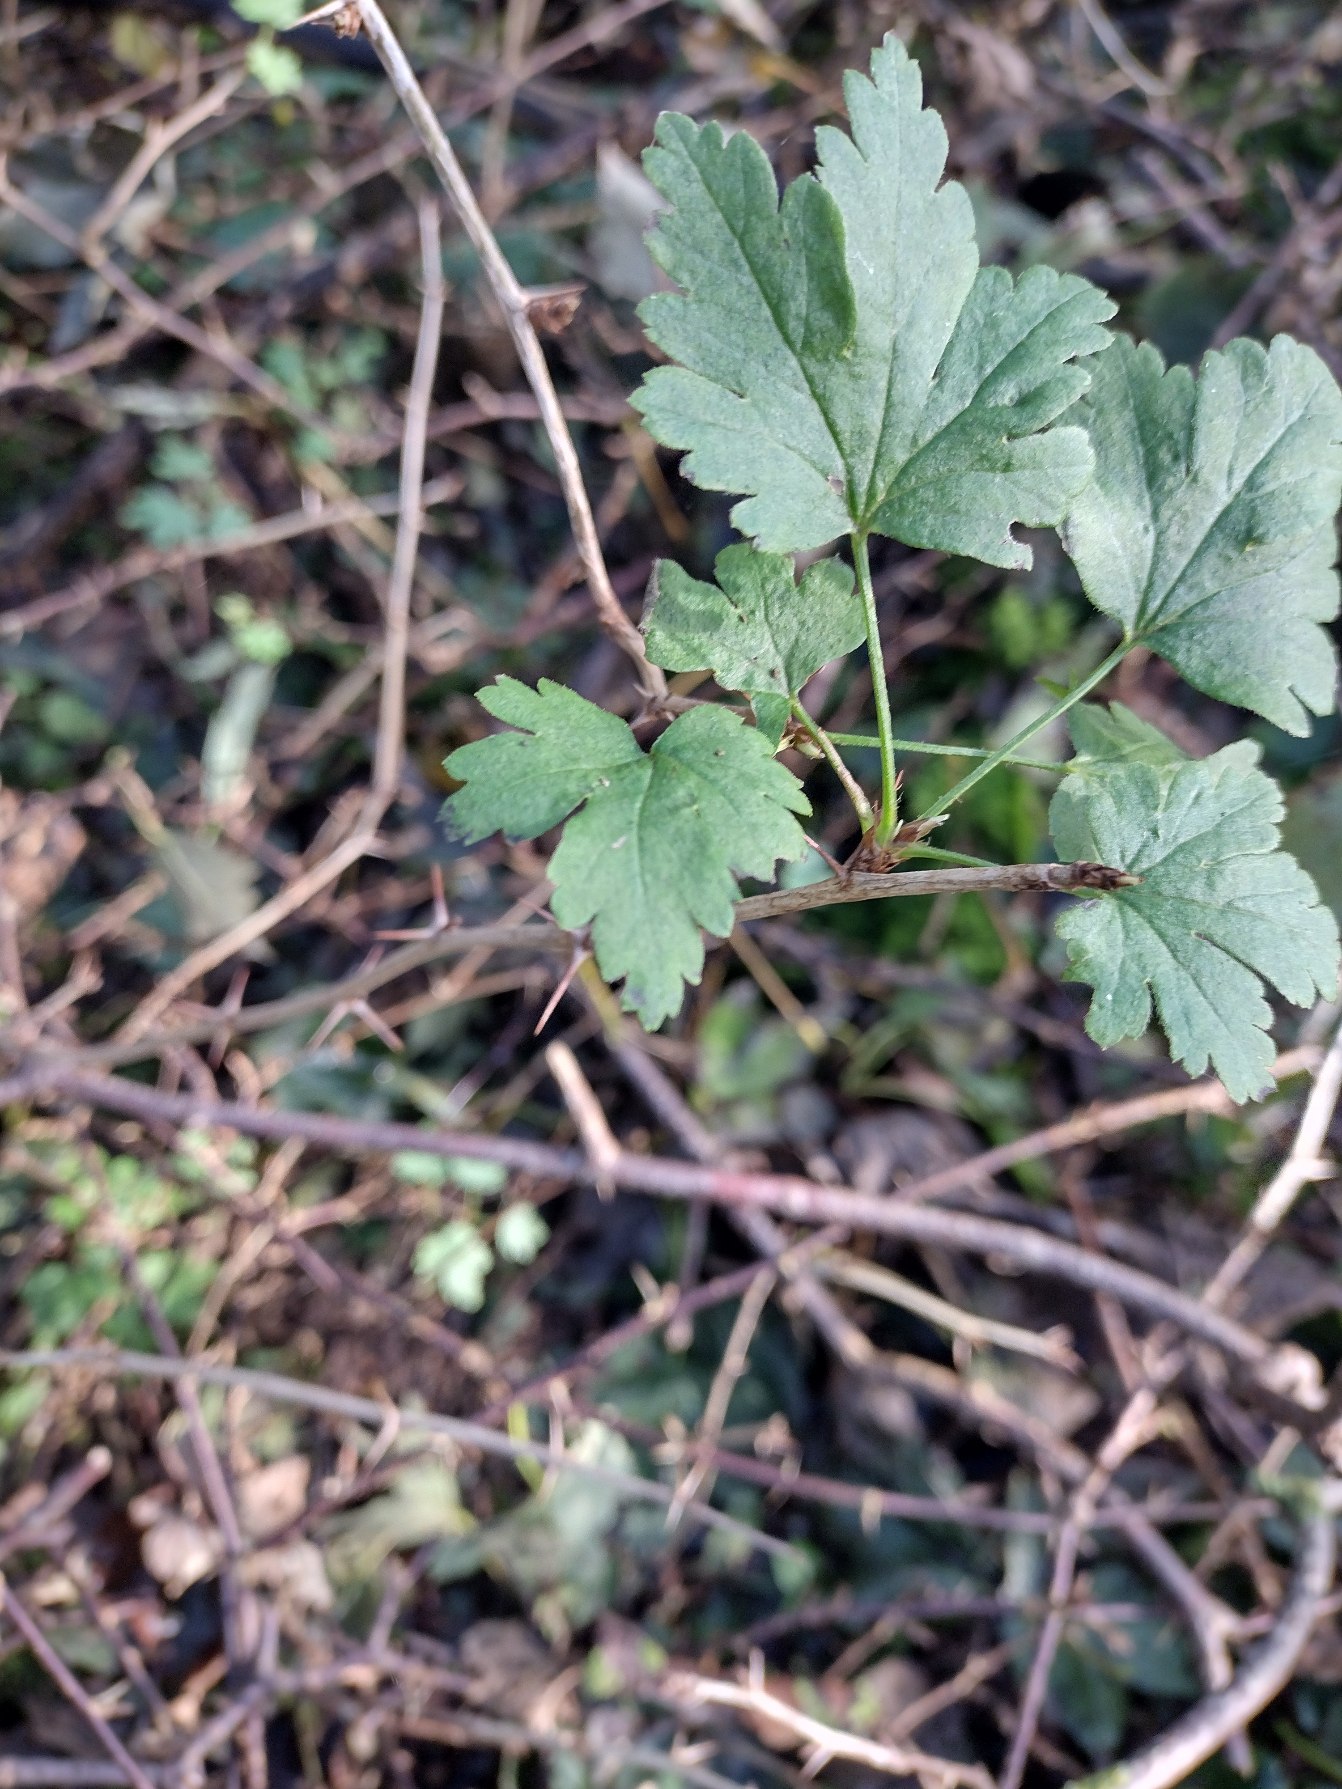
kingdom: Plantae
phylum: Tracheophyta
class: Magnoliopsida
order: Saxifragales
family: Grossulariaceae
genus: Ribes
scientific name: Ribes uva-crispa
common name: Stikkelsbær
